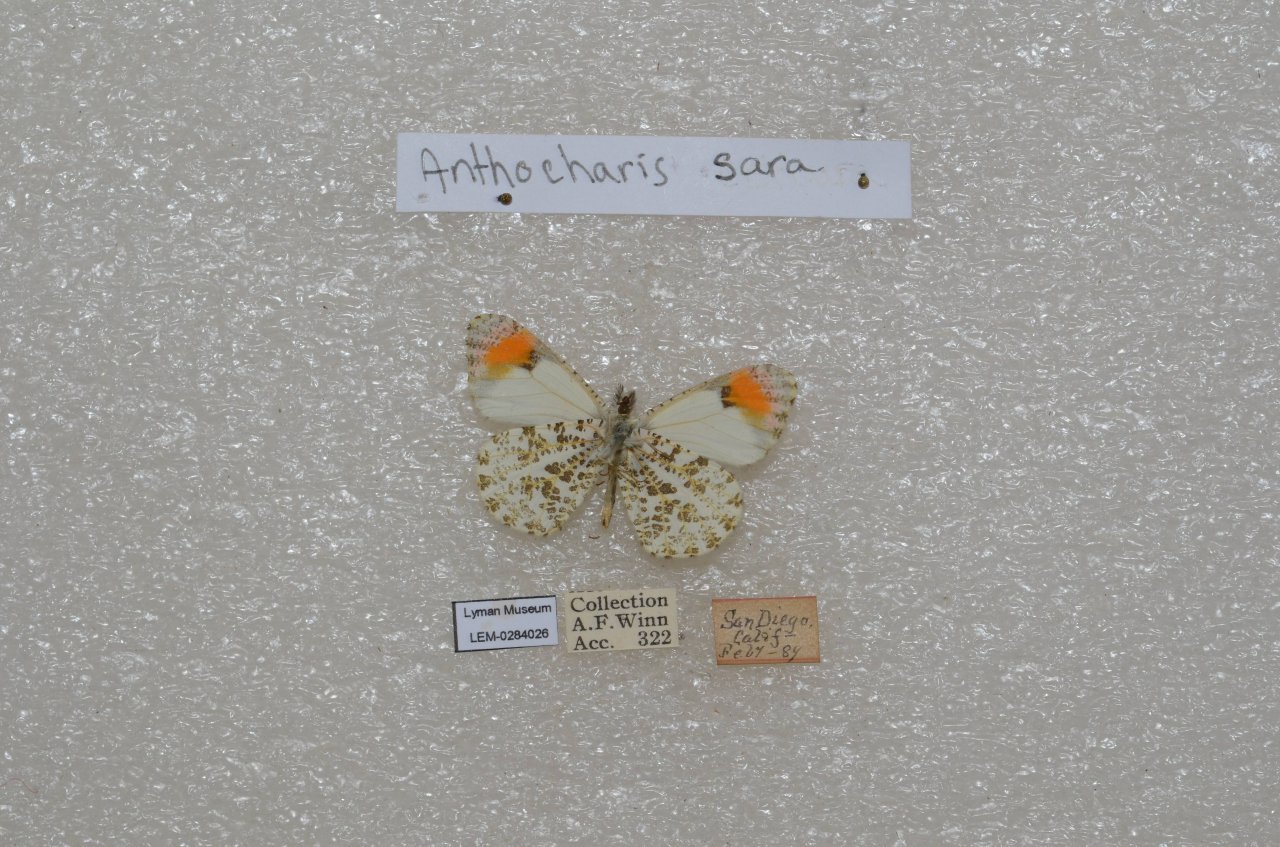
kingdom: Animalia
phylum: Arthropoda
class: Insecta
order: Lepidoptera
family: Pieridae
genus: Anthocharis
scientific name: Anthocharis sara
